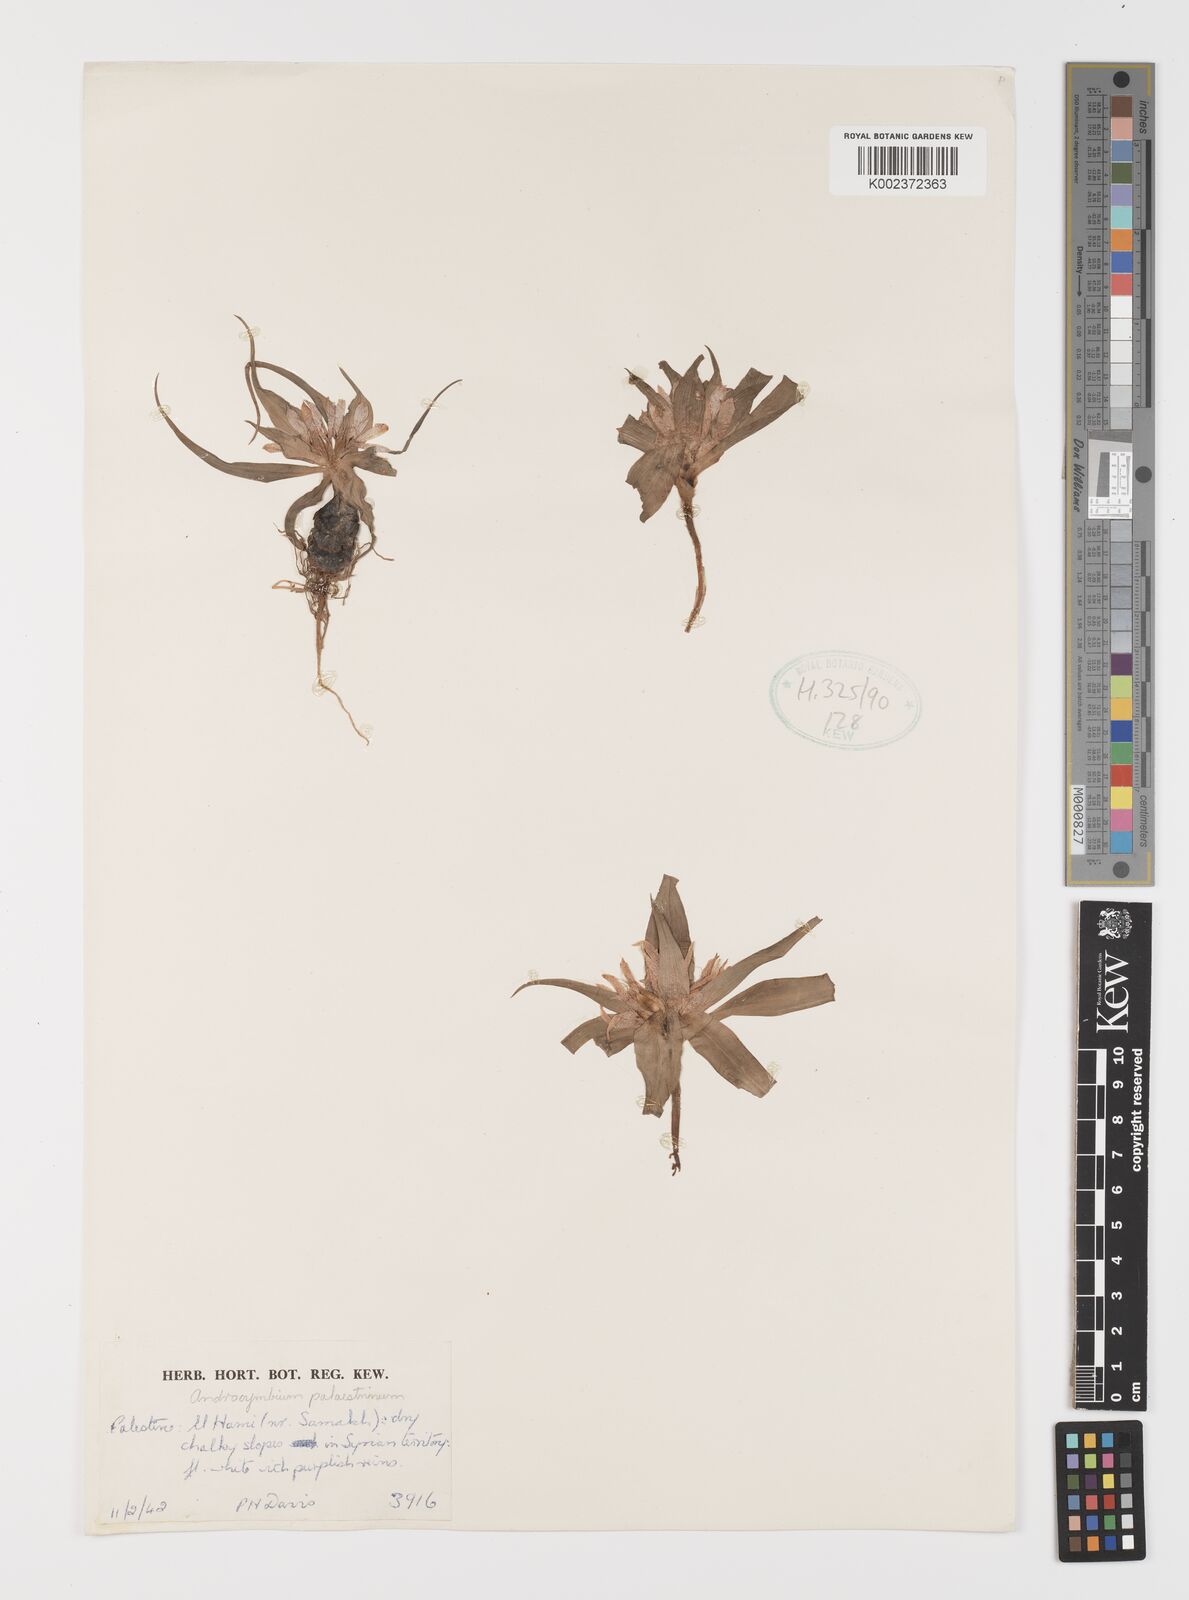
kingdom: Plantae
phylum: Tracheophyta
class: Liliopsida
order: Liliales
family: Colchicaceae
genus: Colchicum
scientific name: Colchicum palaestinum
